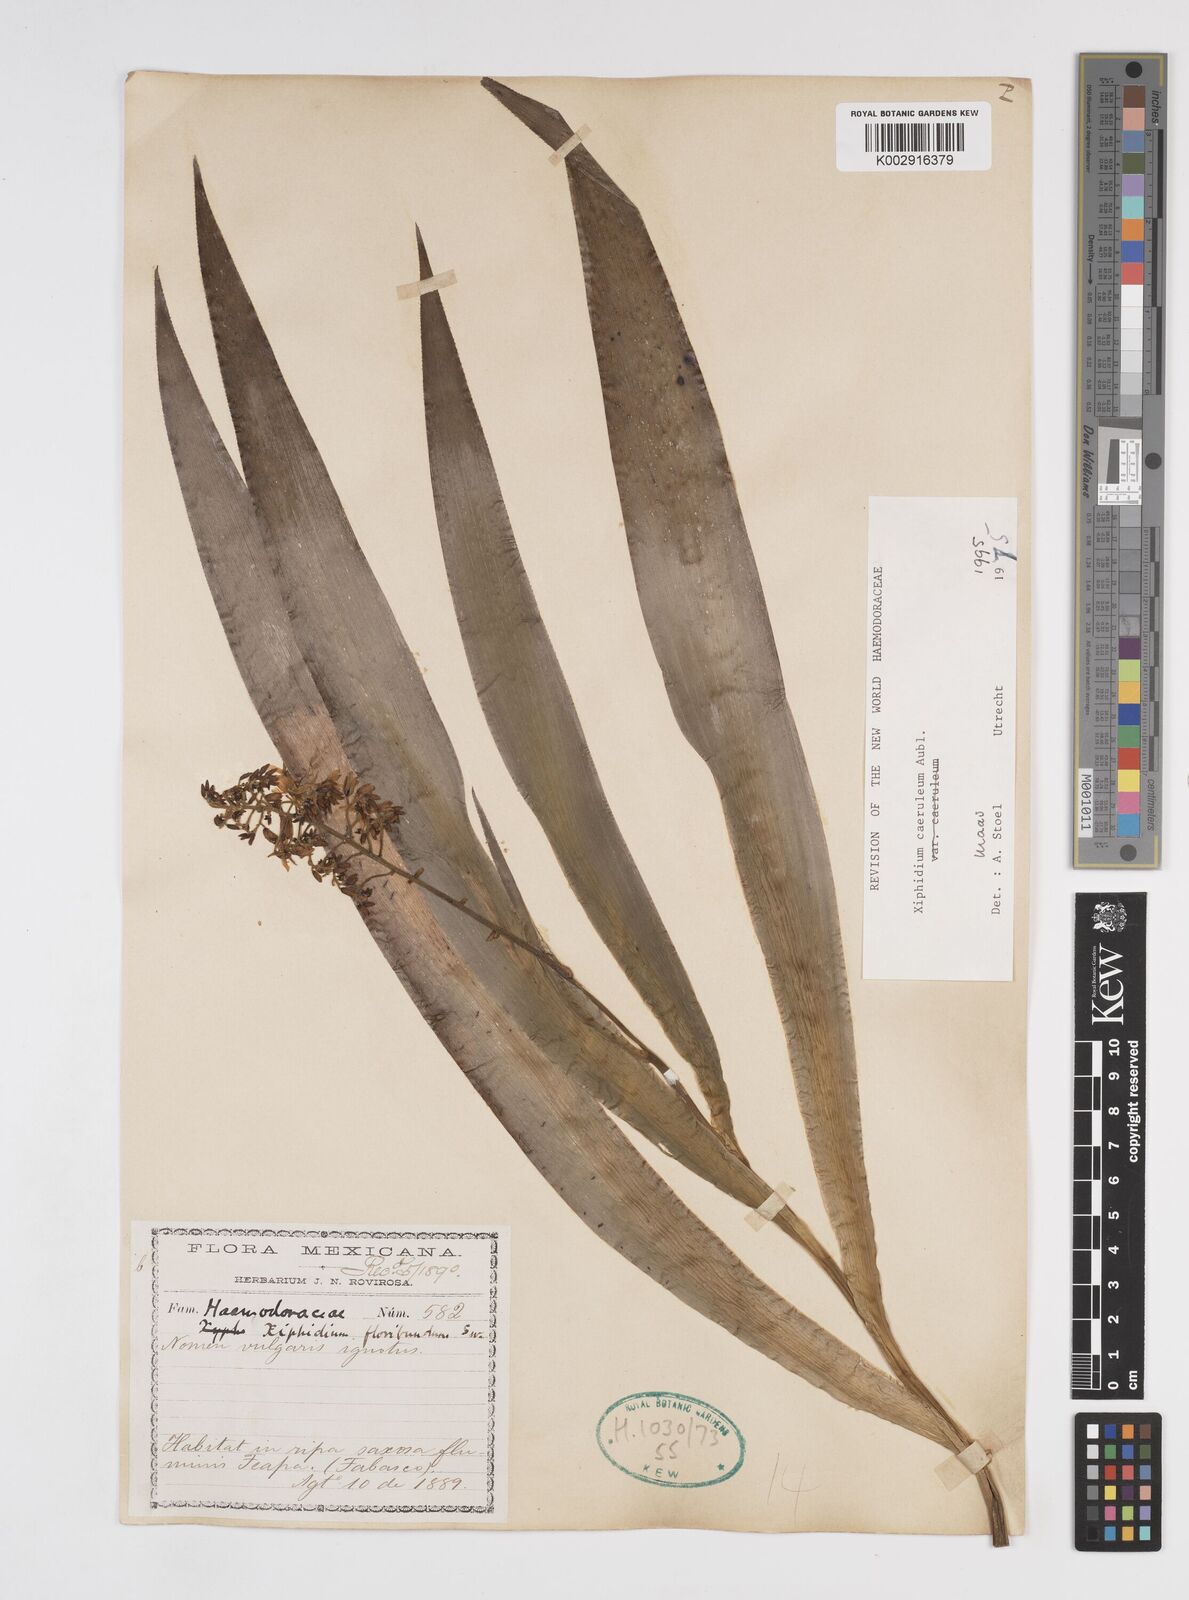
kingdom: Plantae
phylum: Tracheophyta
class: Liliopsida
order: Commelinales
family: Haemodoraceae
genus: Xiphidium
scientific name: Xiphidium caeruleum
